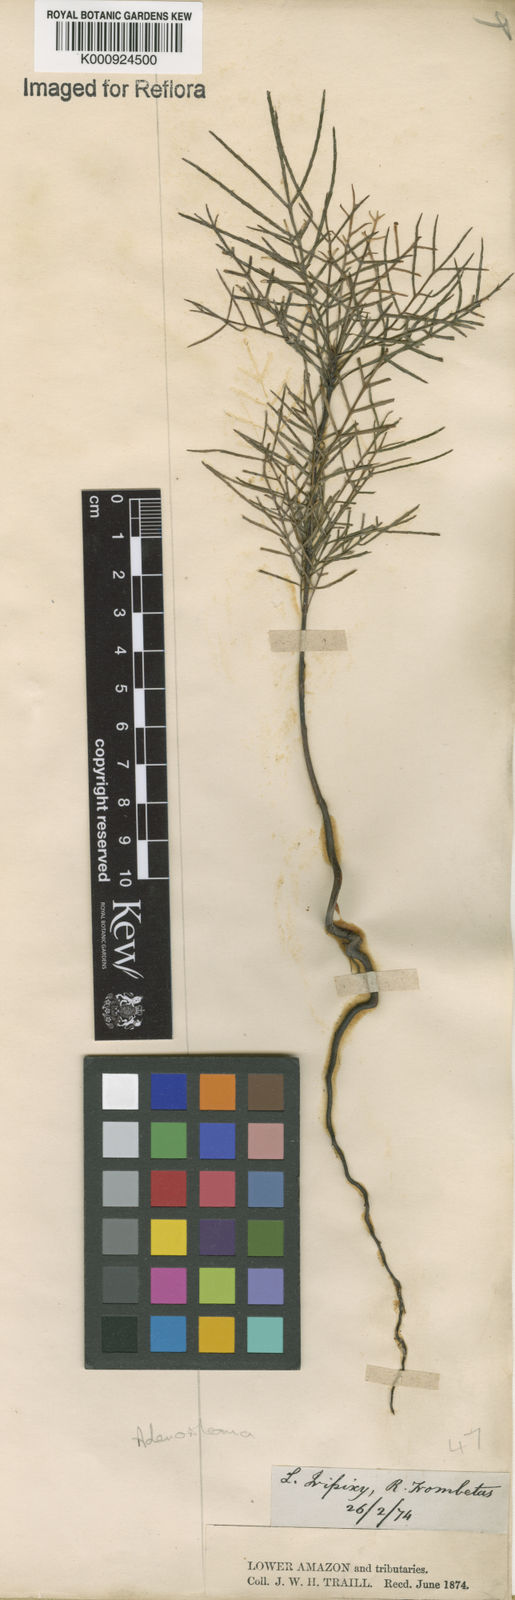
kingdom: Plantae
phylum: Tracheophyta
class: Magnoliopsida
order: Asterales
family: Asteraceae
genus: Adenostemma
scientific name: Adenostemma
